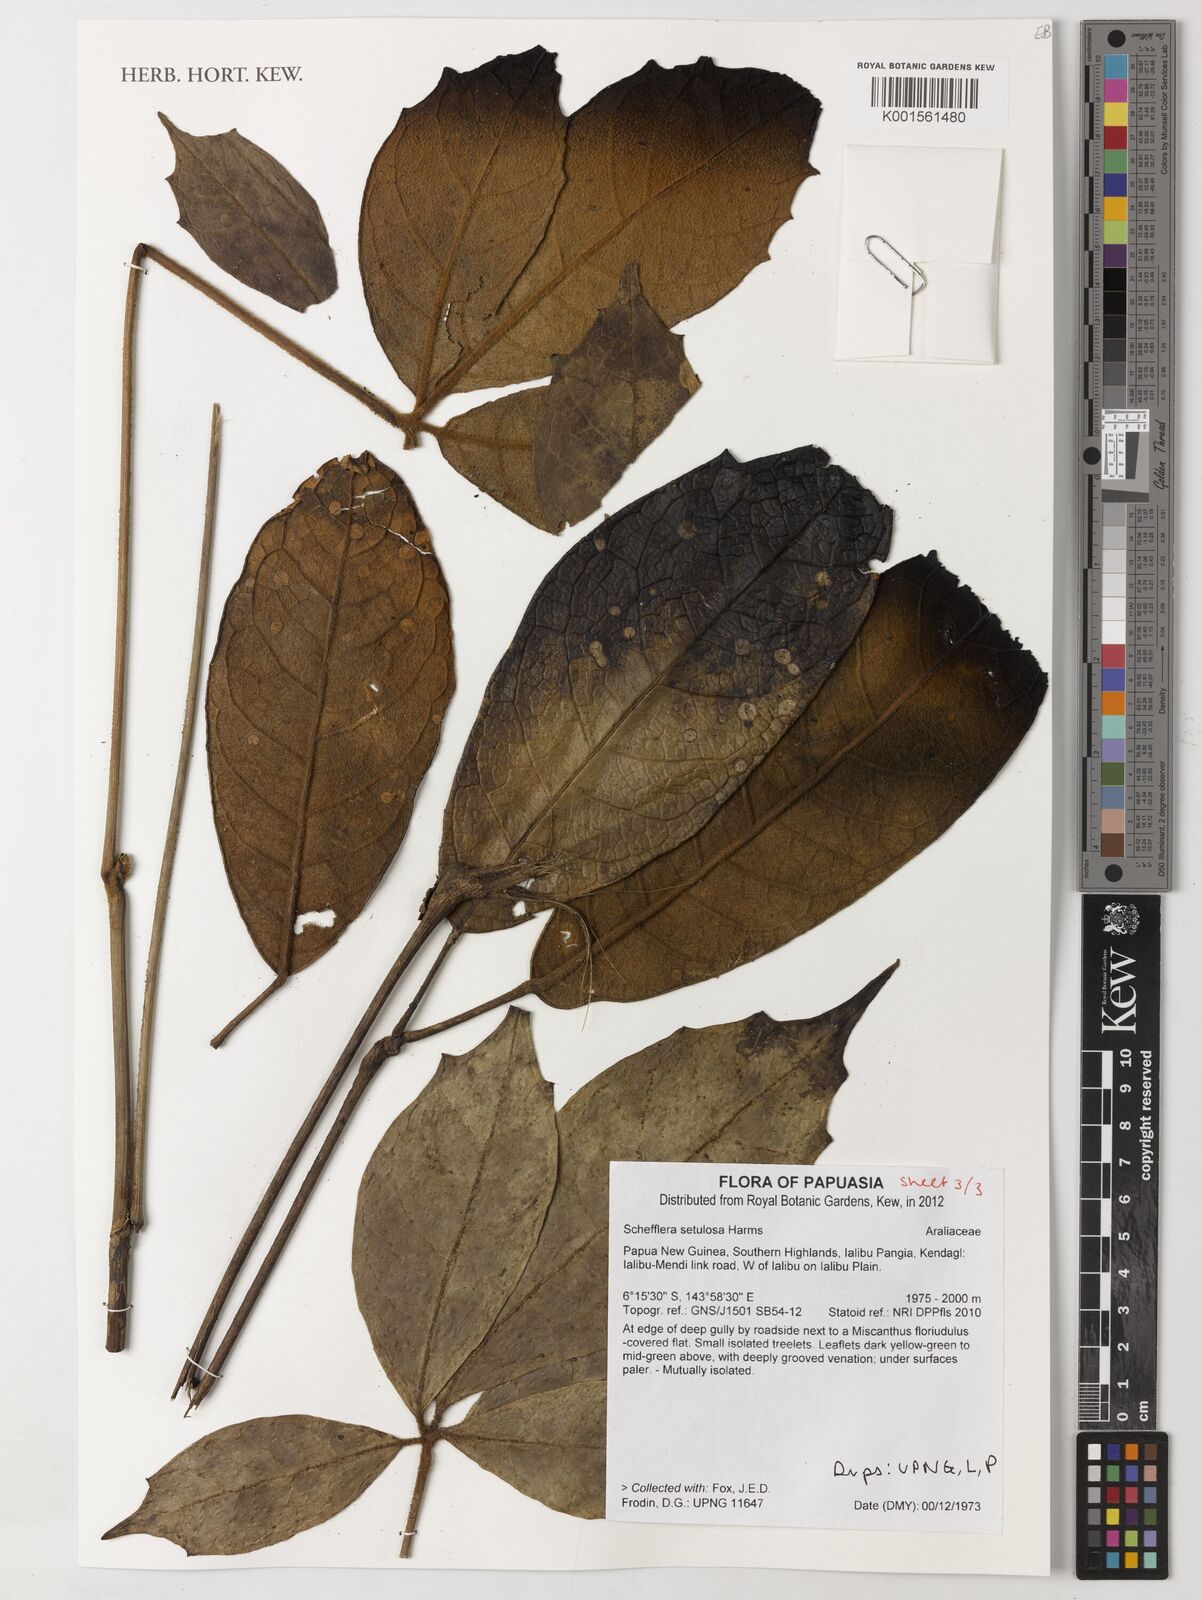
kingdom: Plantae
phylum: Tracheophyta
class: Magnoliopsida
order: Apiales
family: Araliaceae
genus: Heptapleurum
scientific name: Heptapleurum setulosum
